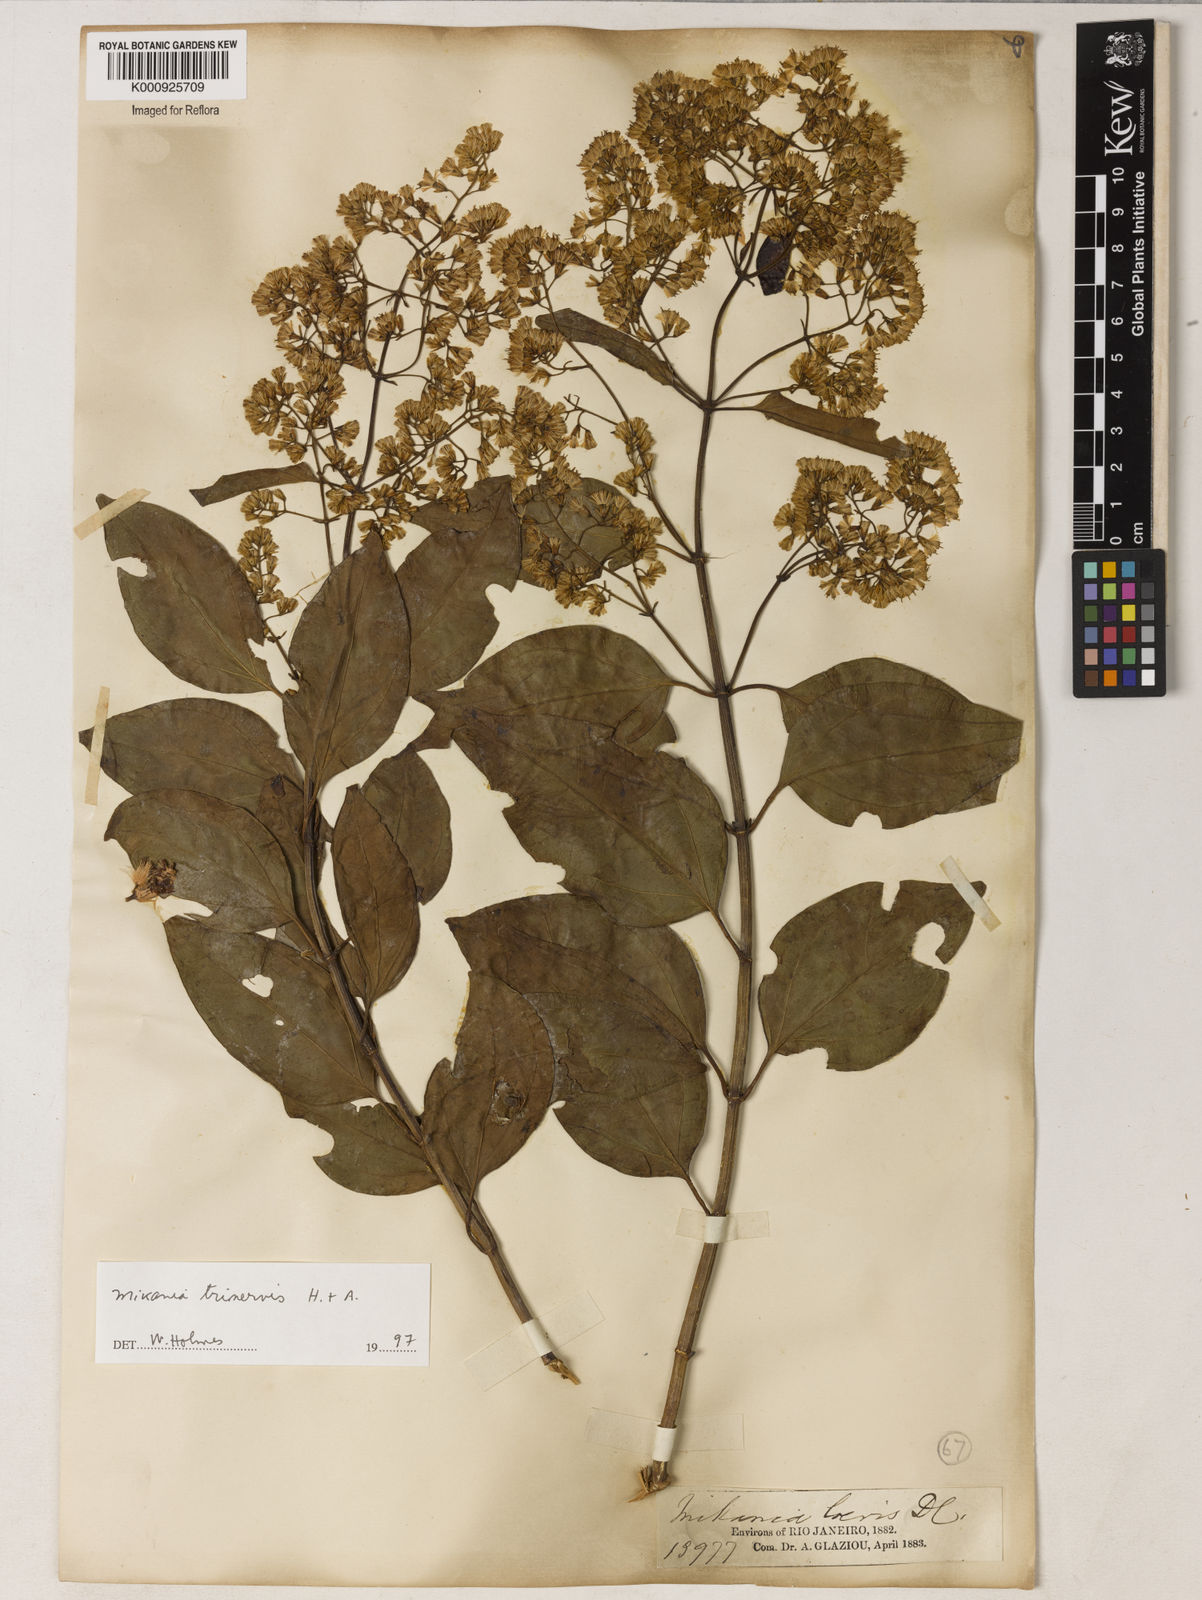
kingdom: Plantae
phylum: Tracheophyta
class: Magnoliopsida
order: Asterales
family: Asteraceae
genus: Mikania
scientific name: Mikania trinervis
